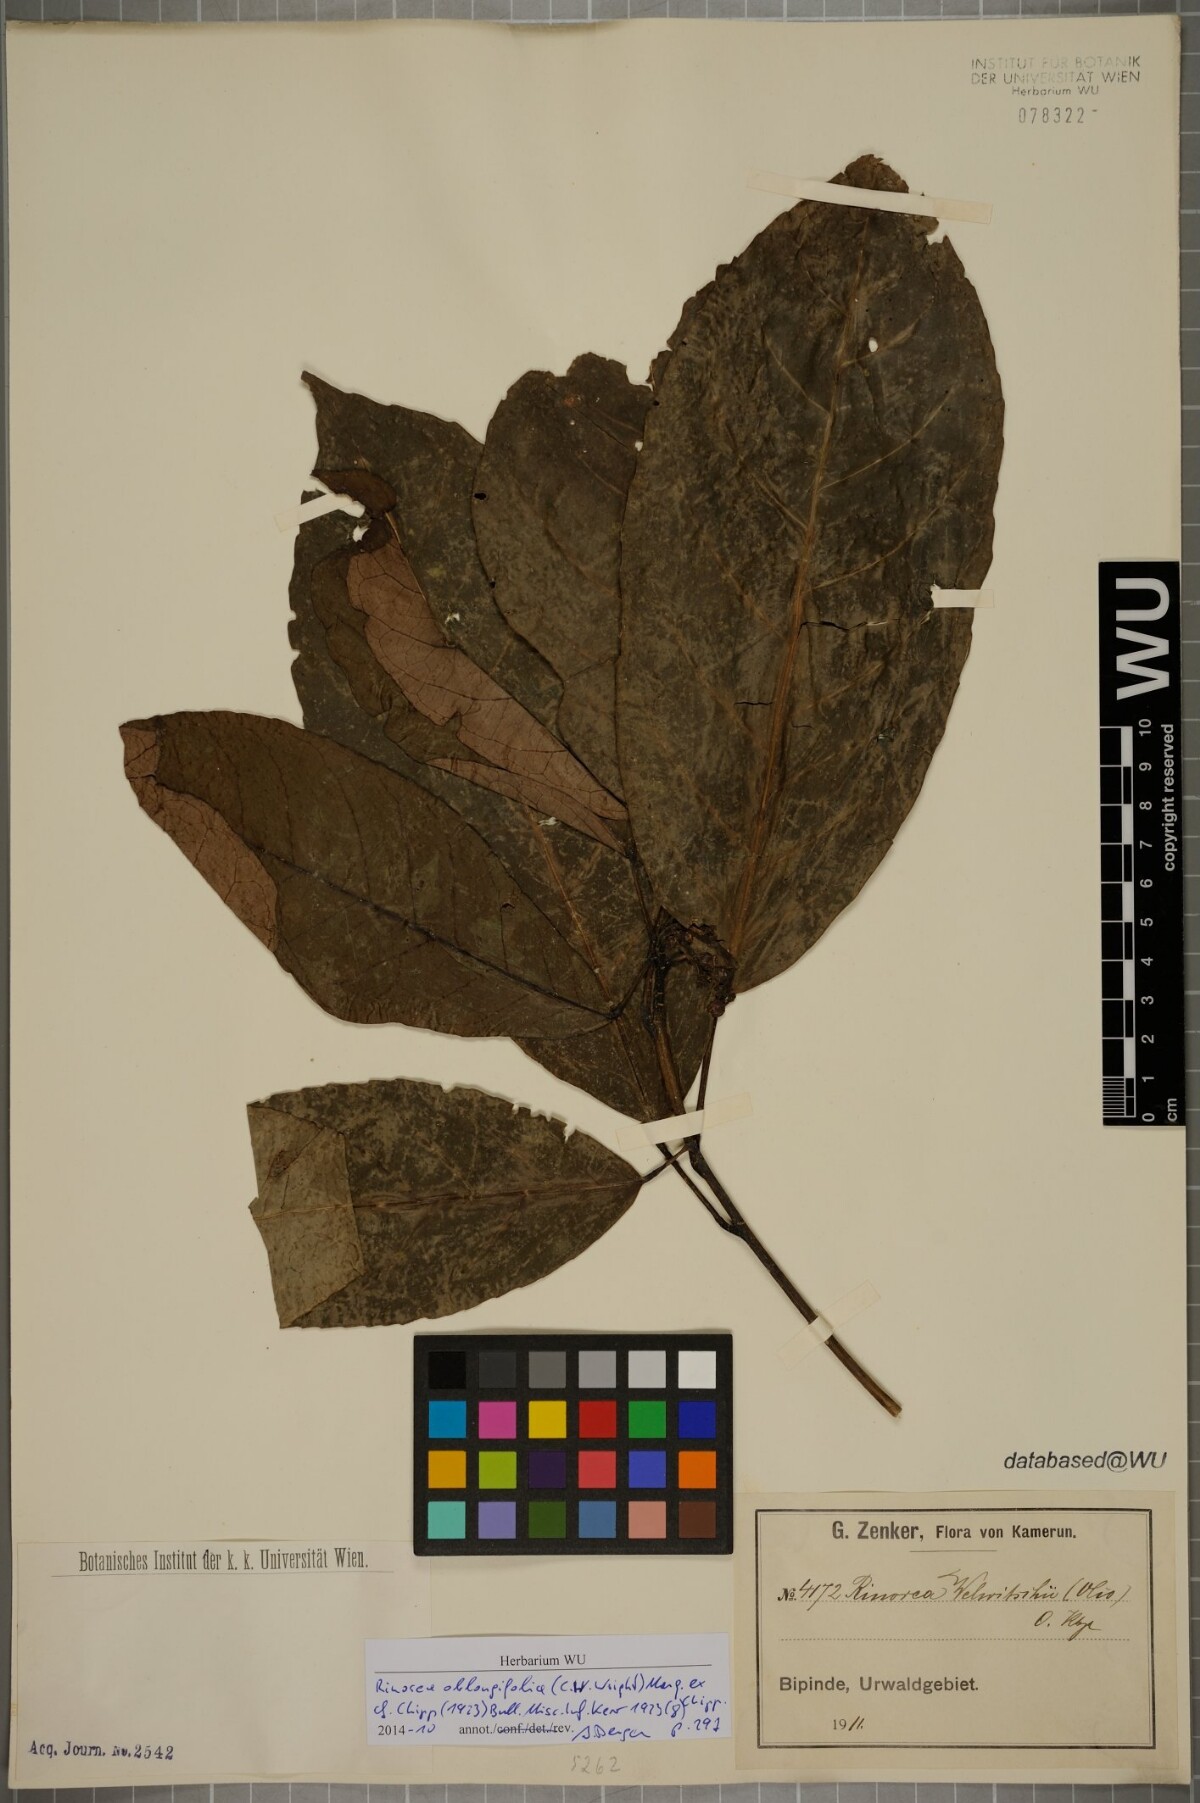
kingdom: Plantae
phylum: Tracheophyta
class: Magnoliopsida
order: Apiales
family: Pittosporaceae
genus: Marianthus
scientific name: Marianthus coeruleopunctatus
